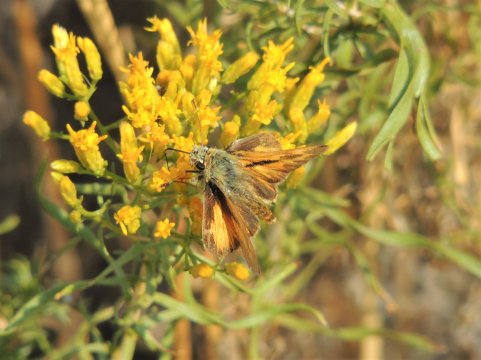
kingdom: Animalia
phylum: Arthropoda
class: Insecta
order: Lepidoptera
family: Hesperiidae
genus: Ochlodes
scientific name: Ochlodes sylvanoides
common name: Woodland Skipper
